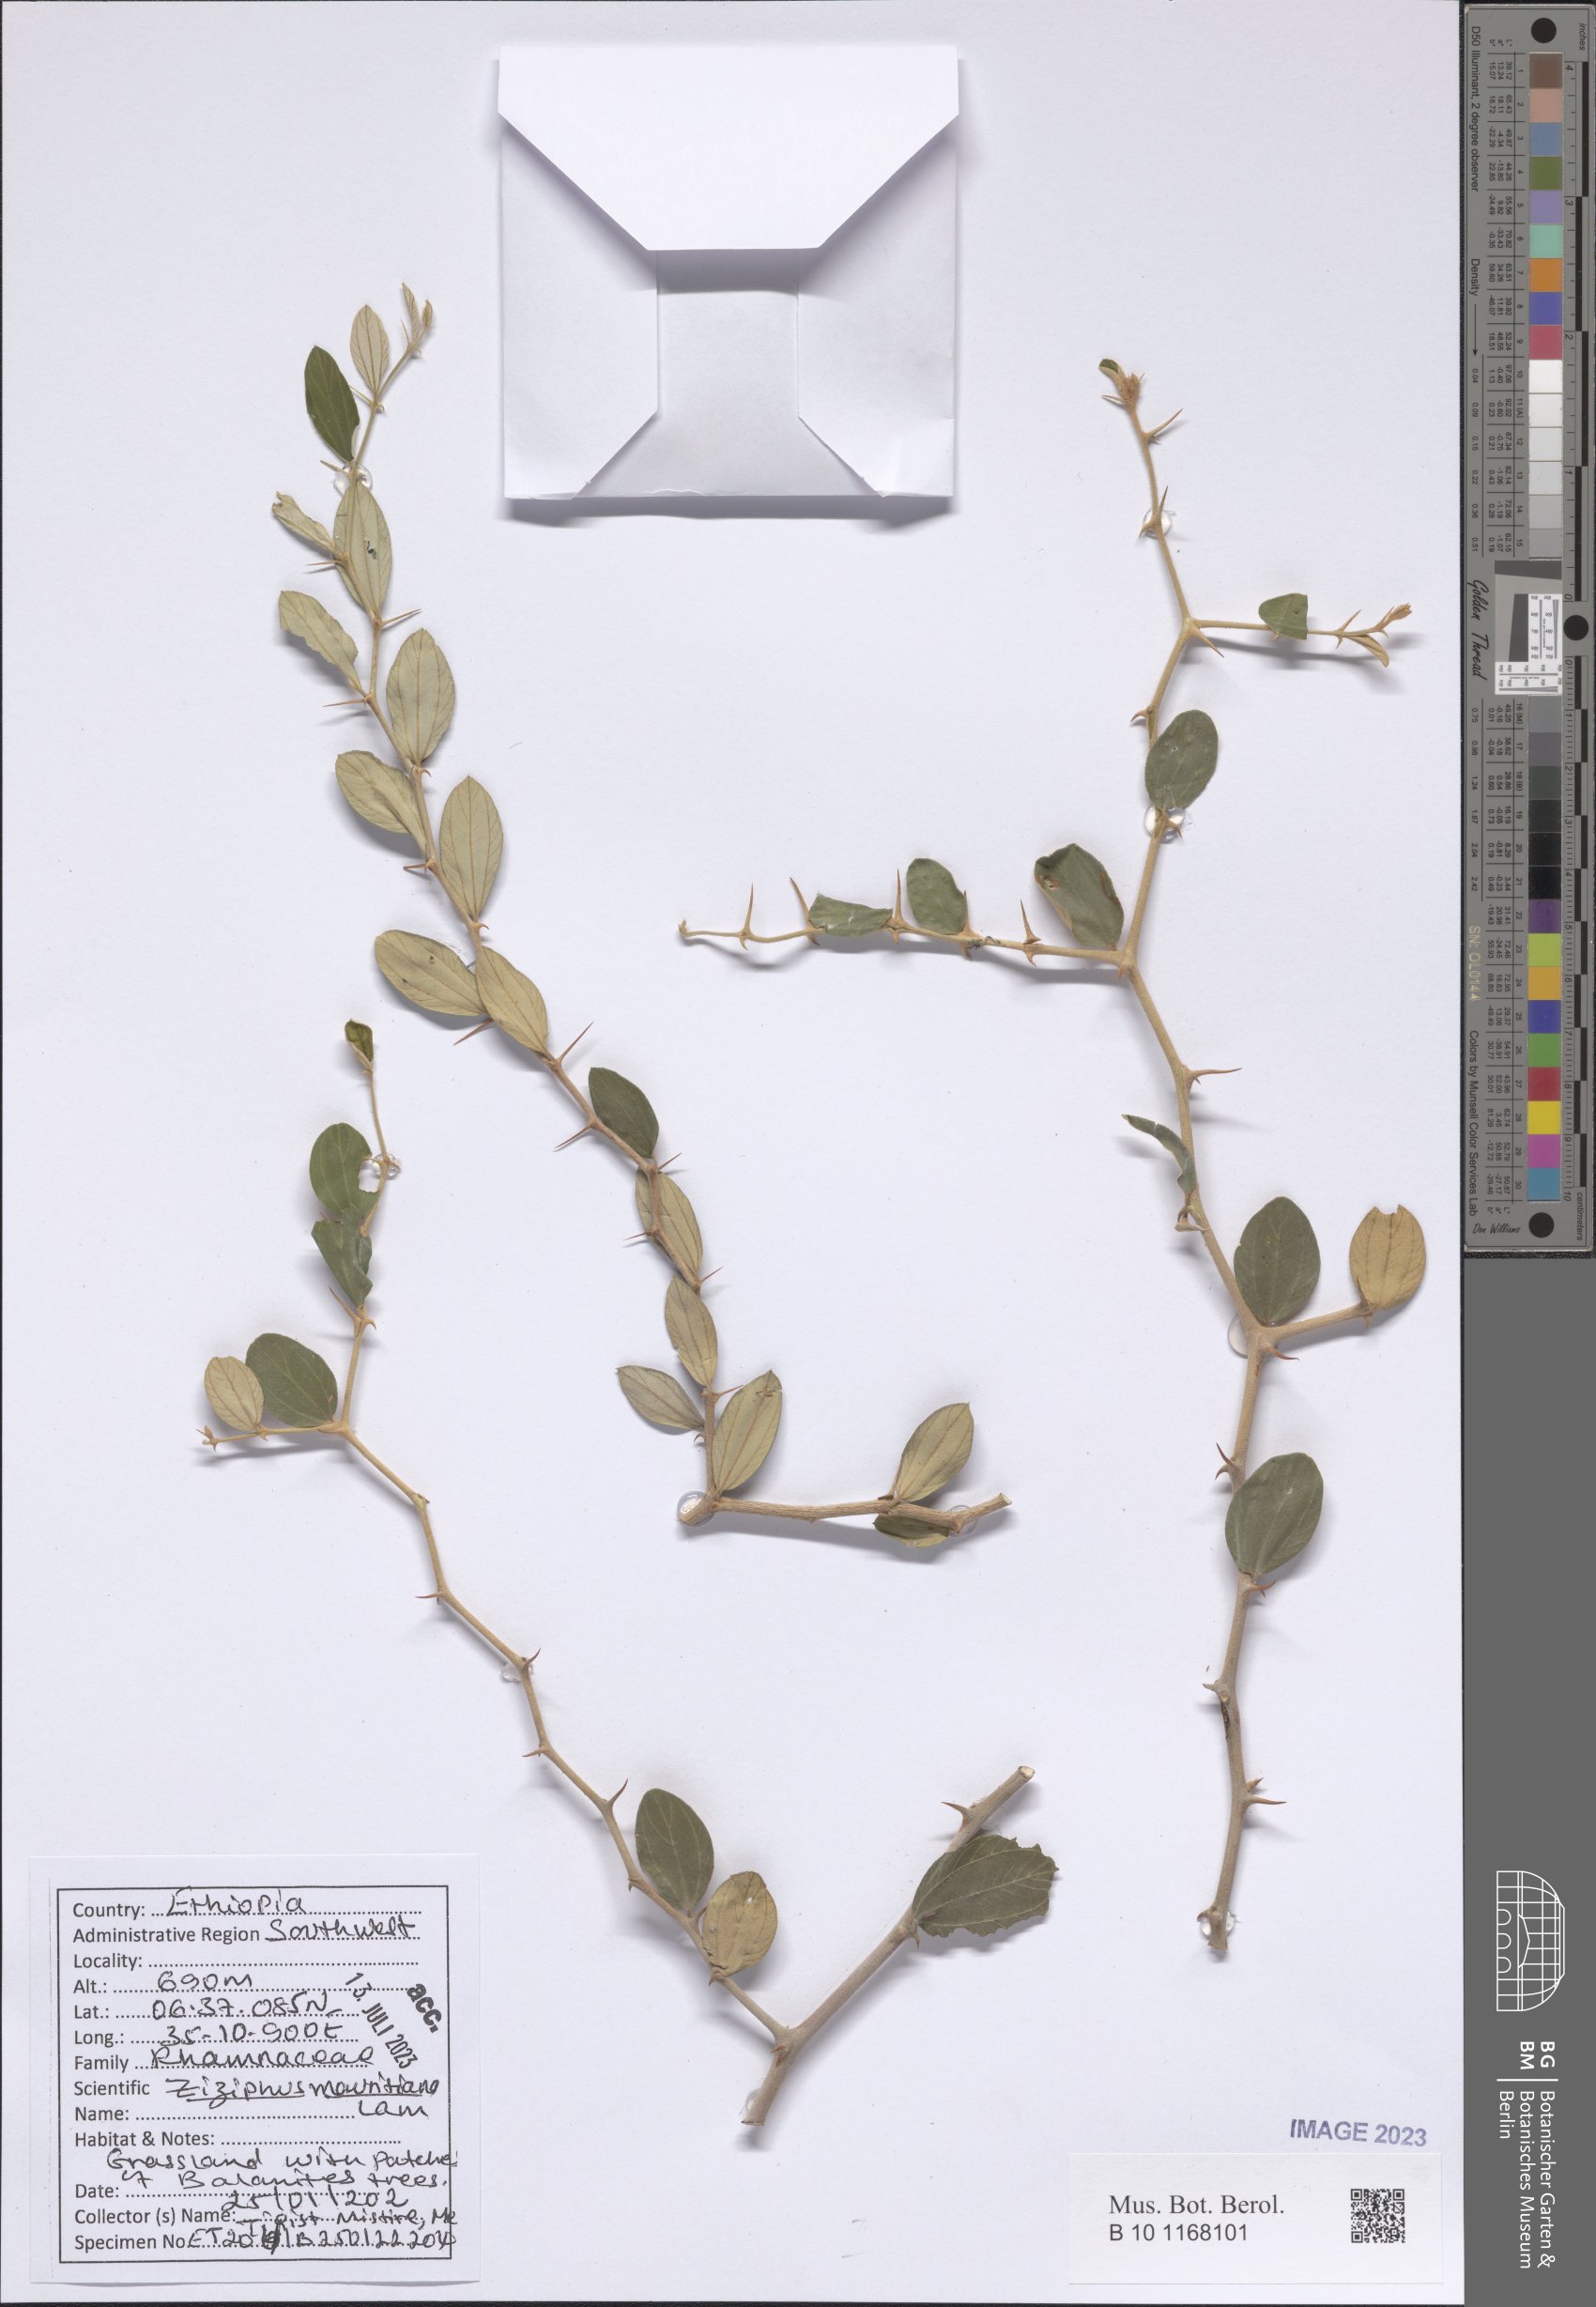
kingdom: Plantae
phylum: Tracheophyta
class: Magnoliopsida
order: Rosales
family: Rhamnaceae
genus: Ziziphus
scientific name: Ziziphus mauritiana
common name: Indian jujube
